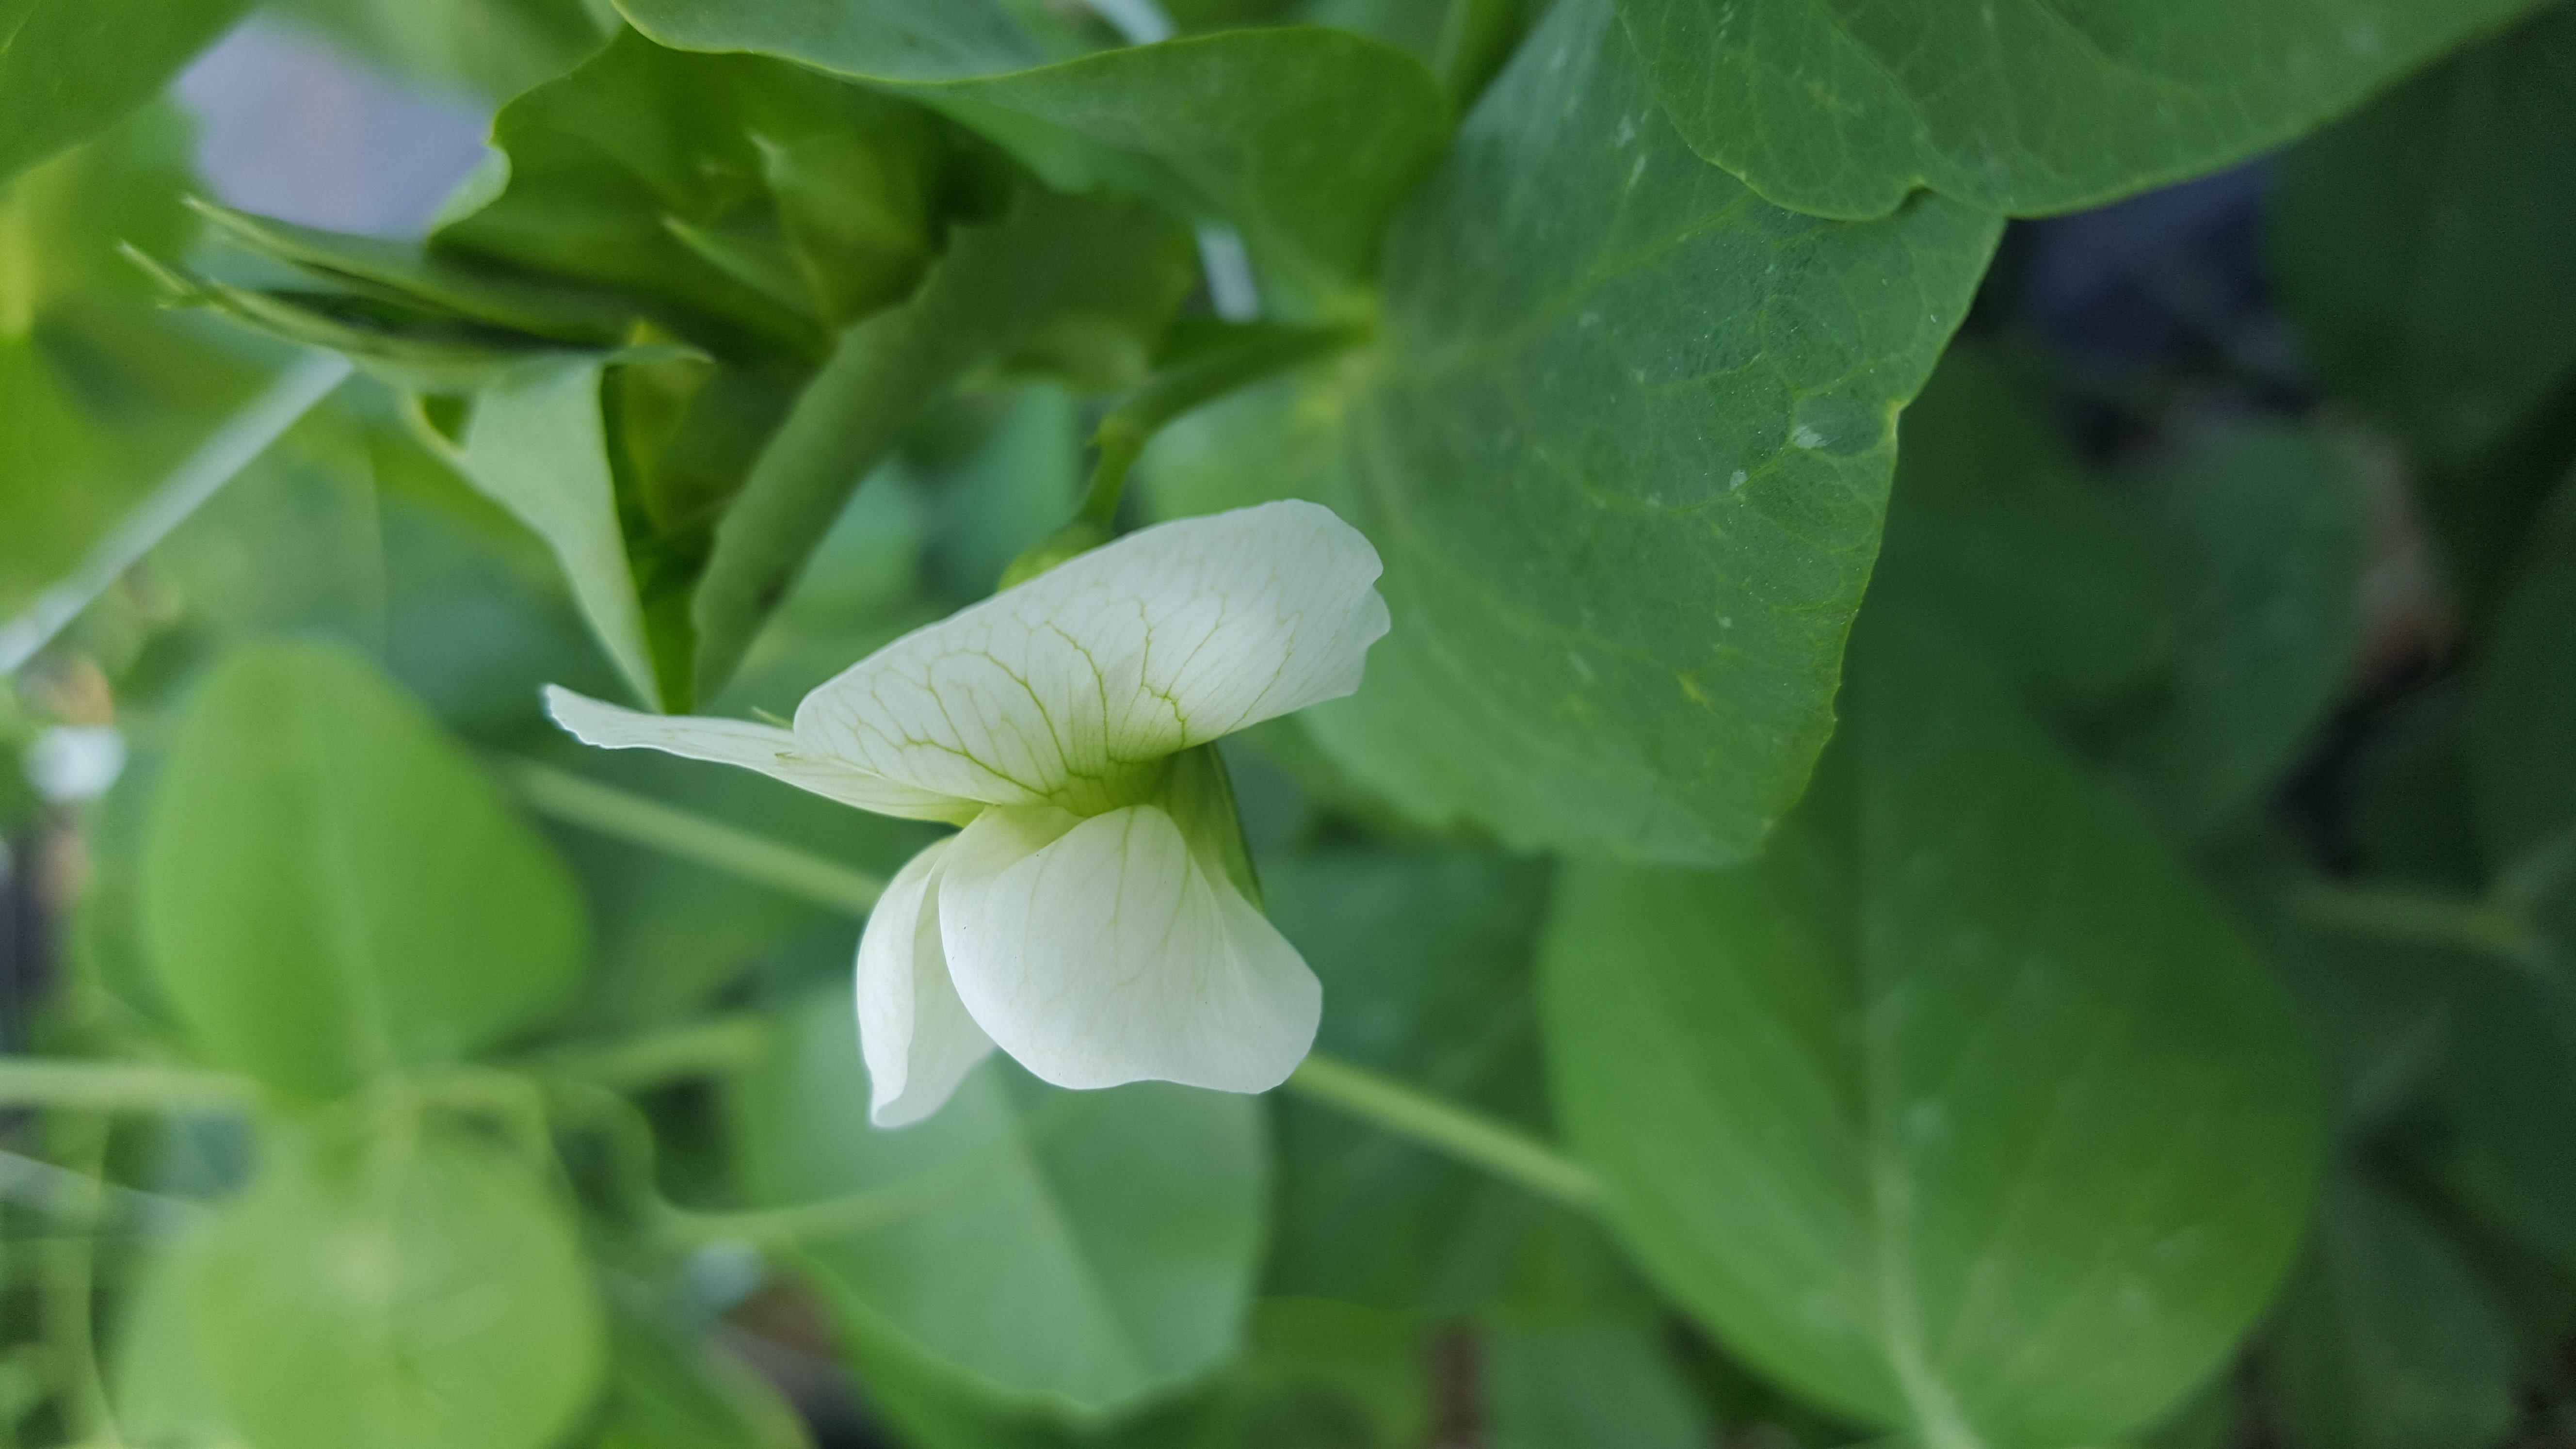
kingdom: Plantae
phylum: Tracheophyta
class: Magnoliopsida
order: Fabales
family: Fabaceae
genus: Lathyrus
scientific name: Lathyrus oleraceus
